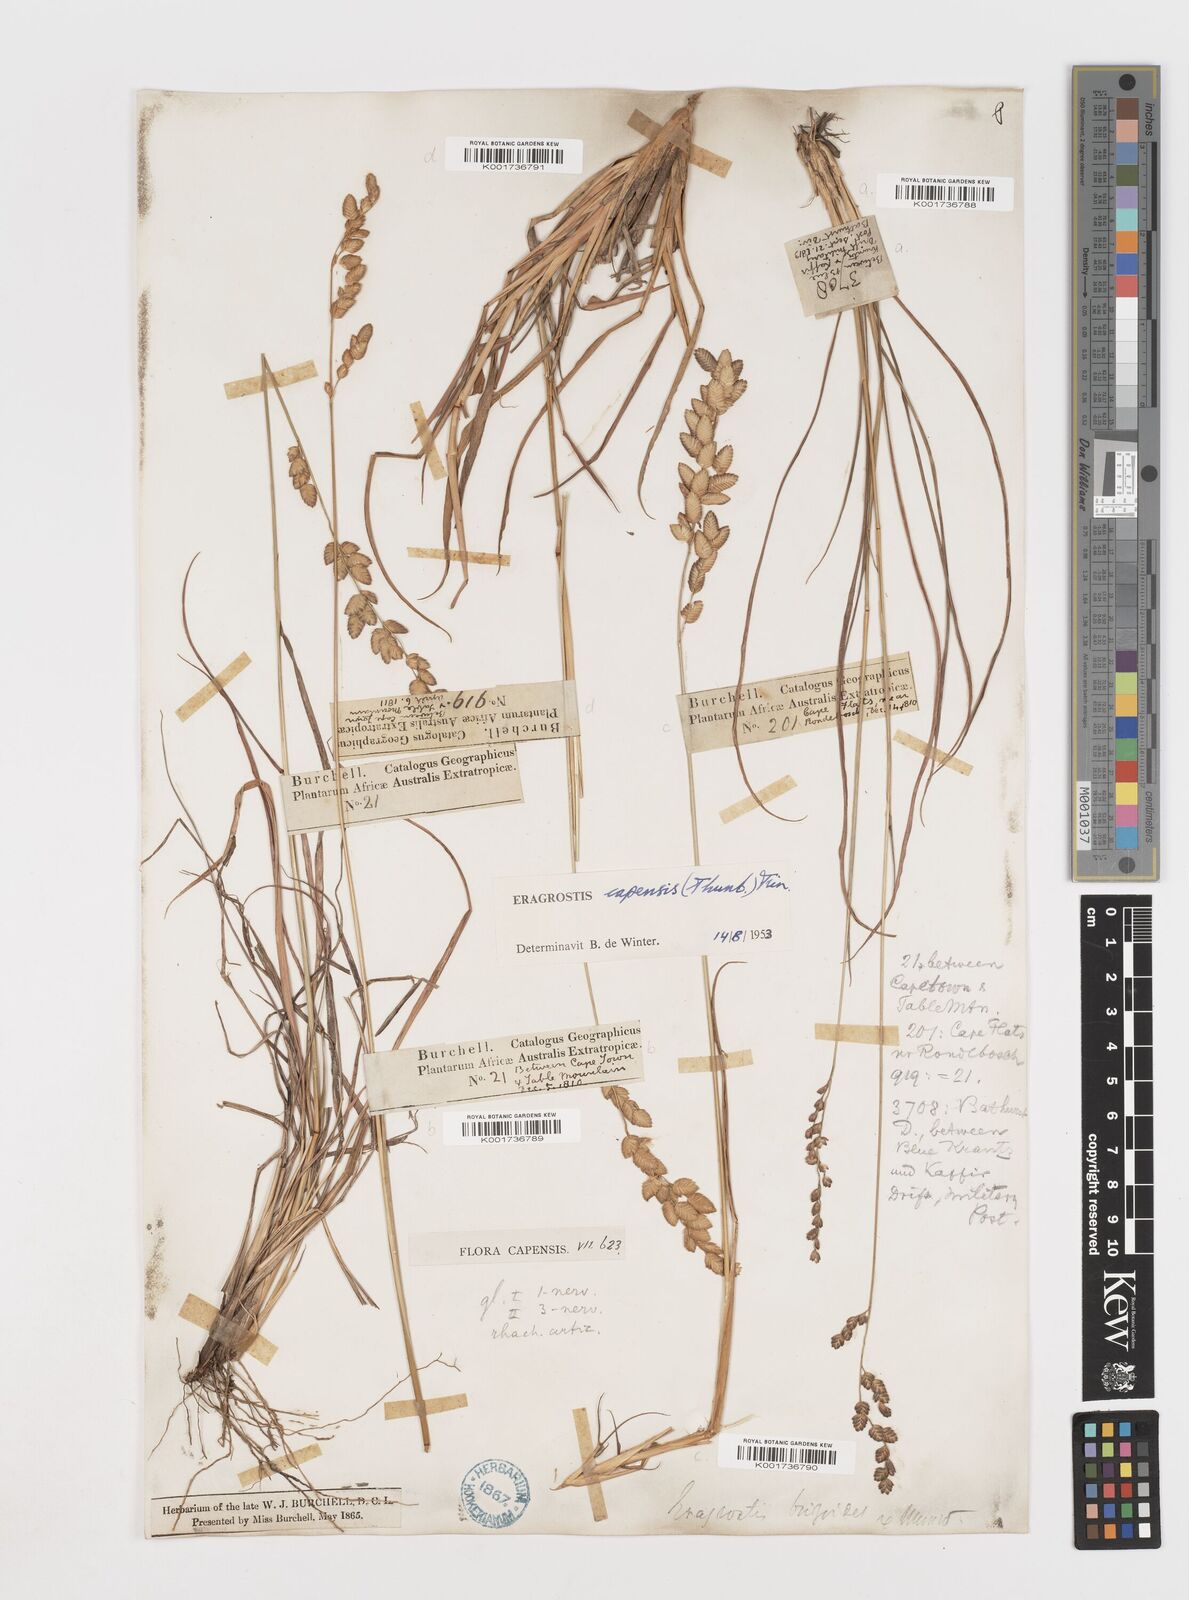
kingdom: Plantae
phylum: Tracheophyta
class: Liliopsida
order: Poales
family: Poaceae
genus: Eragrostis
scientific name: Eragrostis capensis
